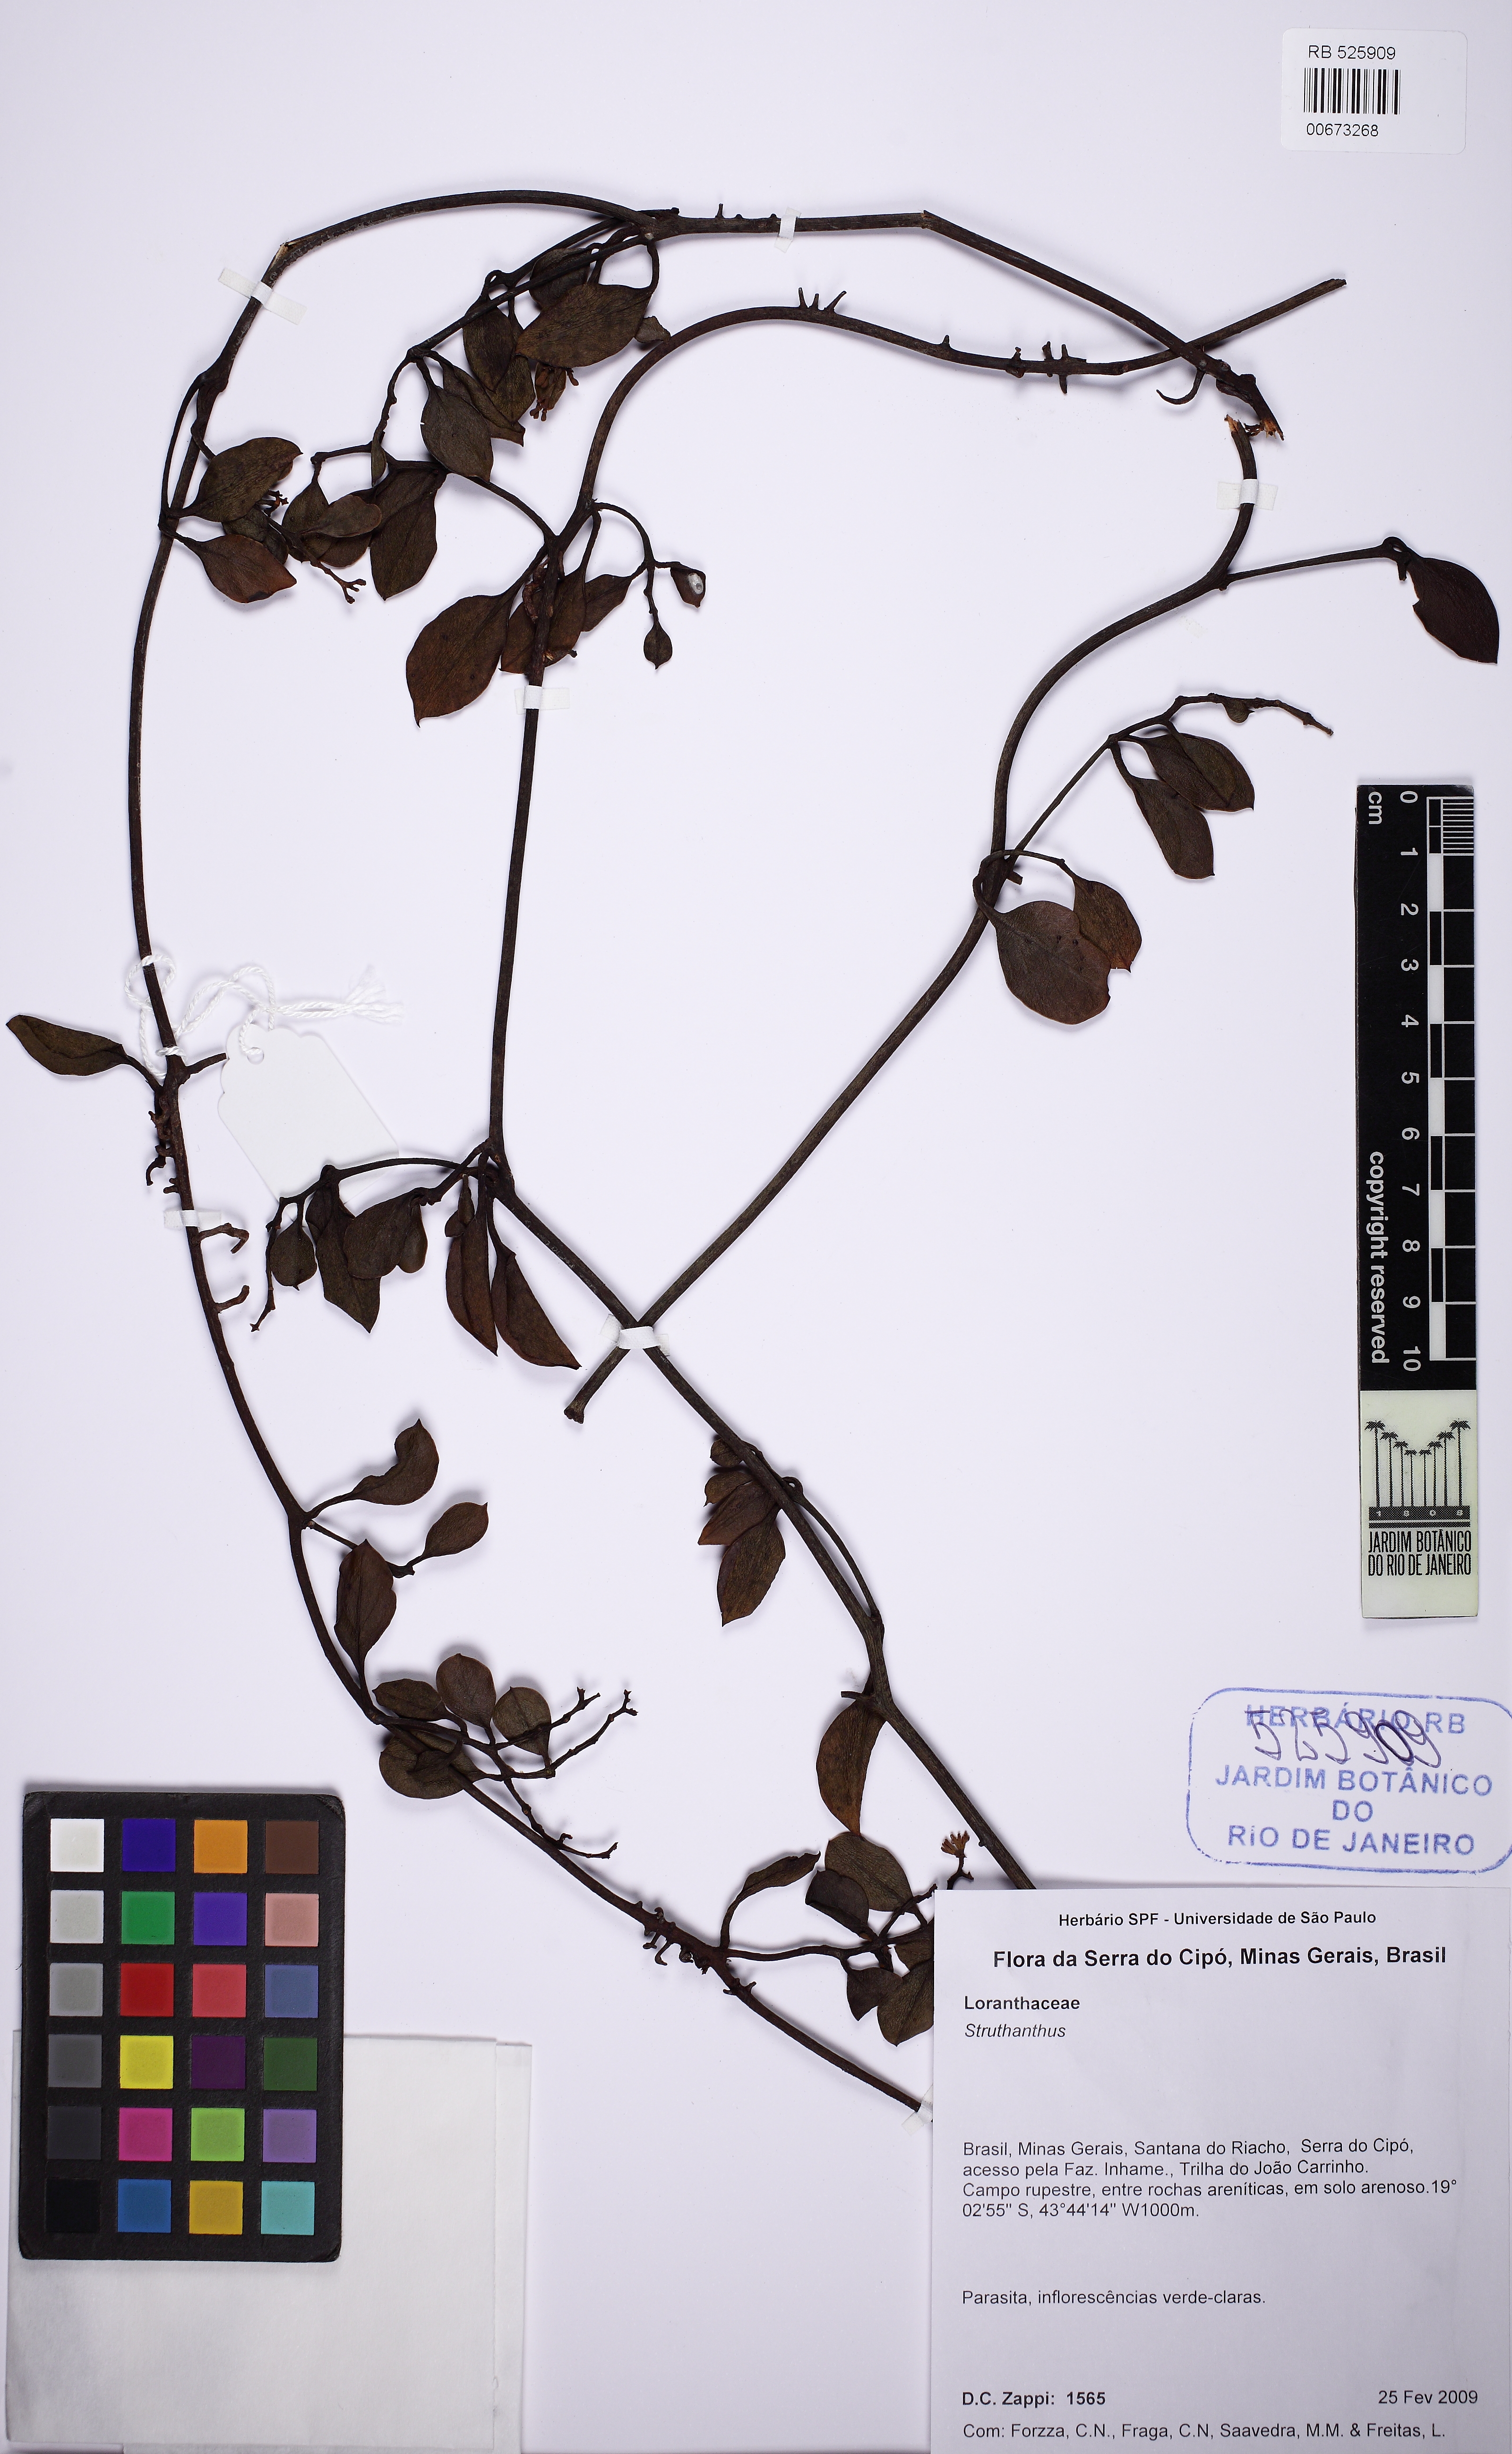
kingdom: Plantae
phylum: Tracheophyta
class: Magnoliopsida
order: Santalales
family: Loranthaceae
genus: Struthanthus
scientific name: Struthanthus
